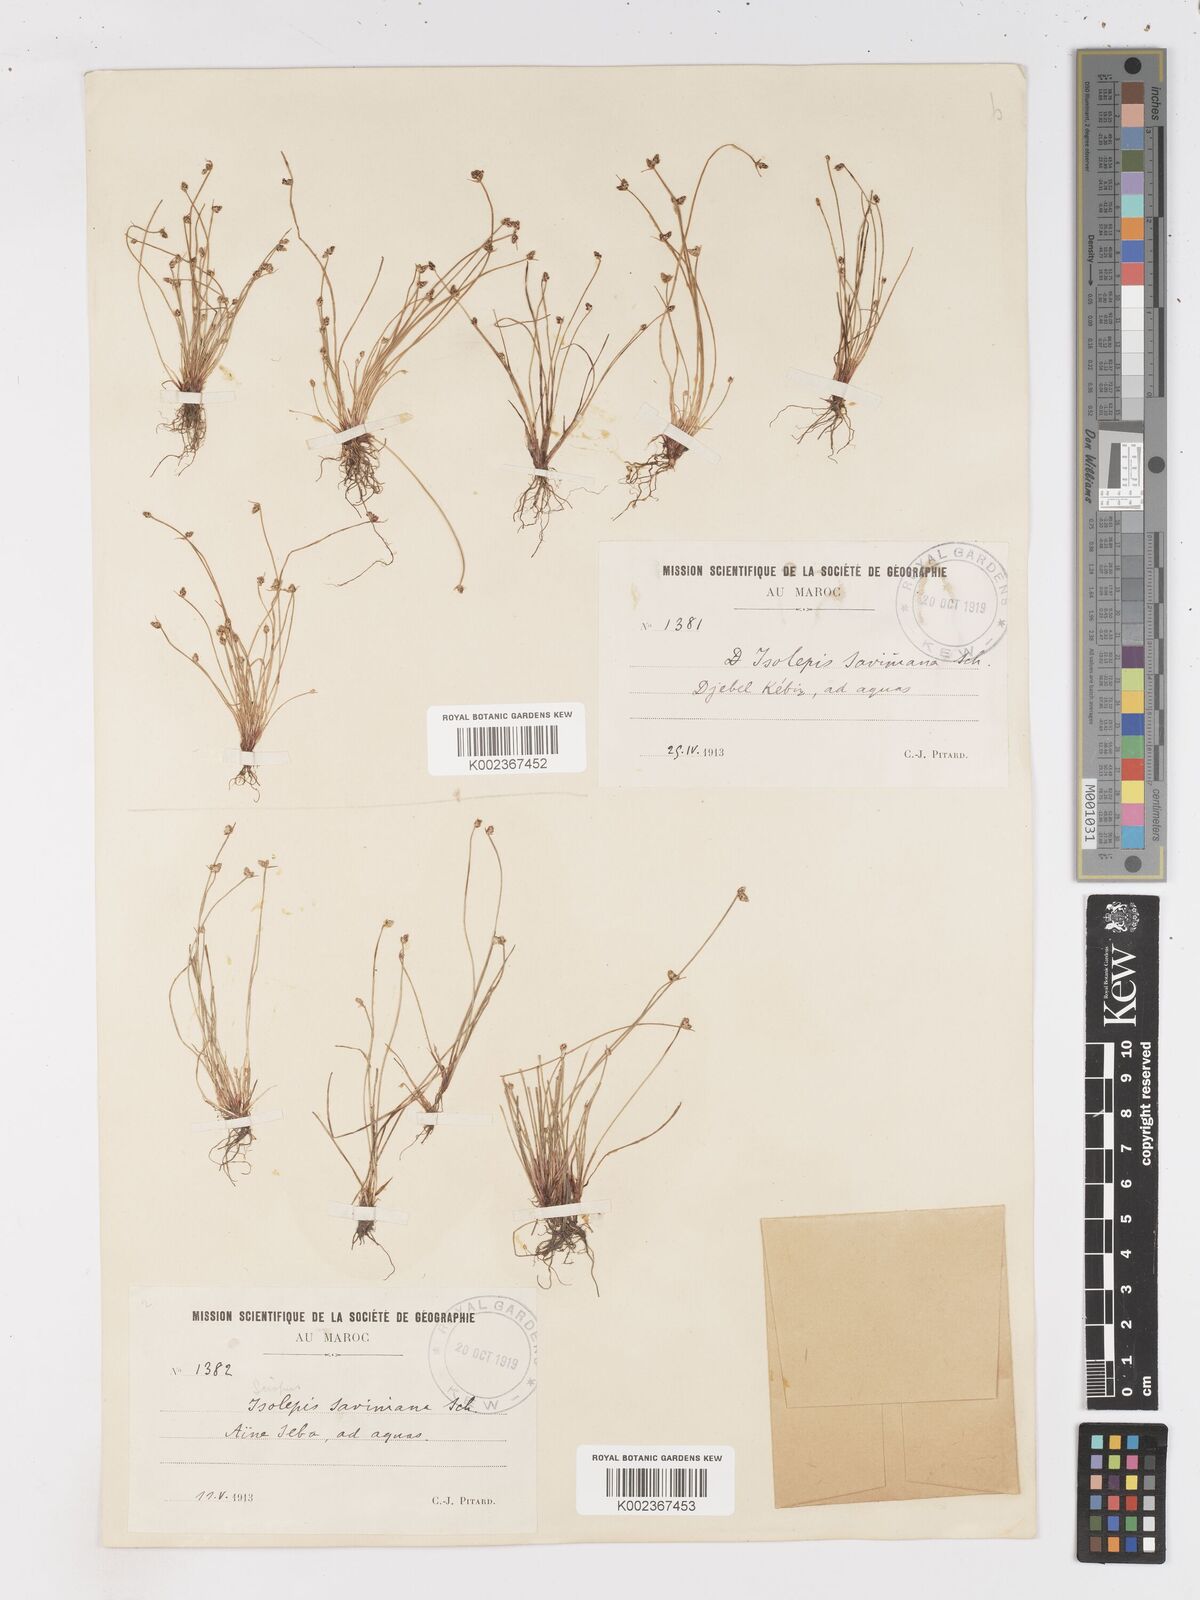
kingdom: Plantae
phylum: Tracheophyta
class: Liliopsida
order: Poales
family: Cyperaceae
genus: Isolepis
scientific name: Isolepis cernua
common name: Slender club-rush
